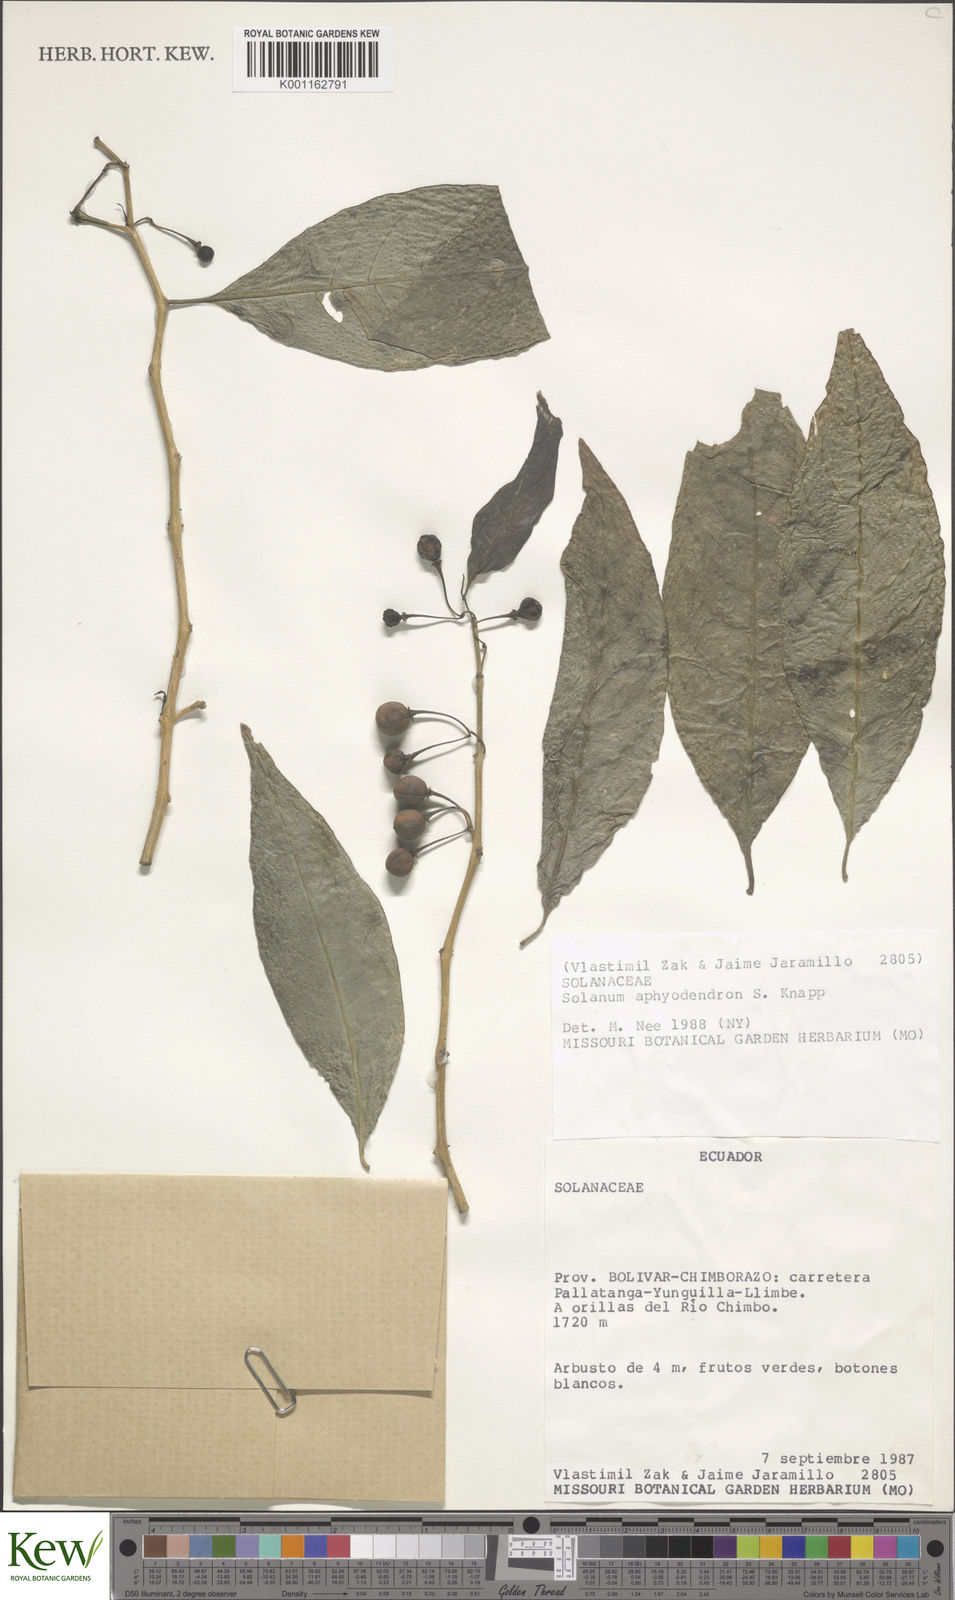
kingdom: Plantae
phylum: Tracheophyta
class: Magnoliopsida
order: Solanales
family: Solanaceae
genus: Solanum
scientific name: Solanum aphyodendron
